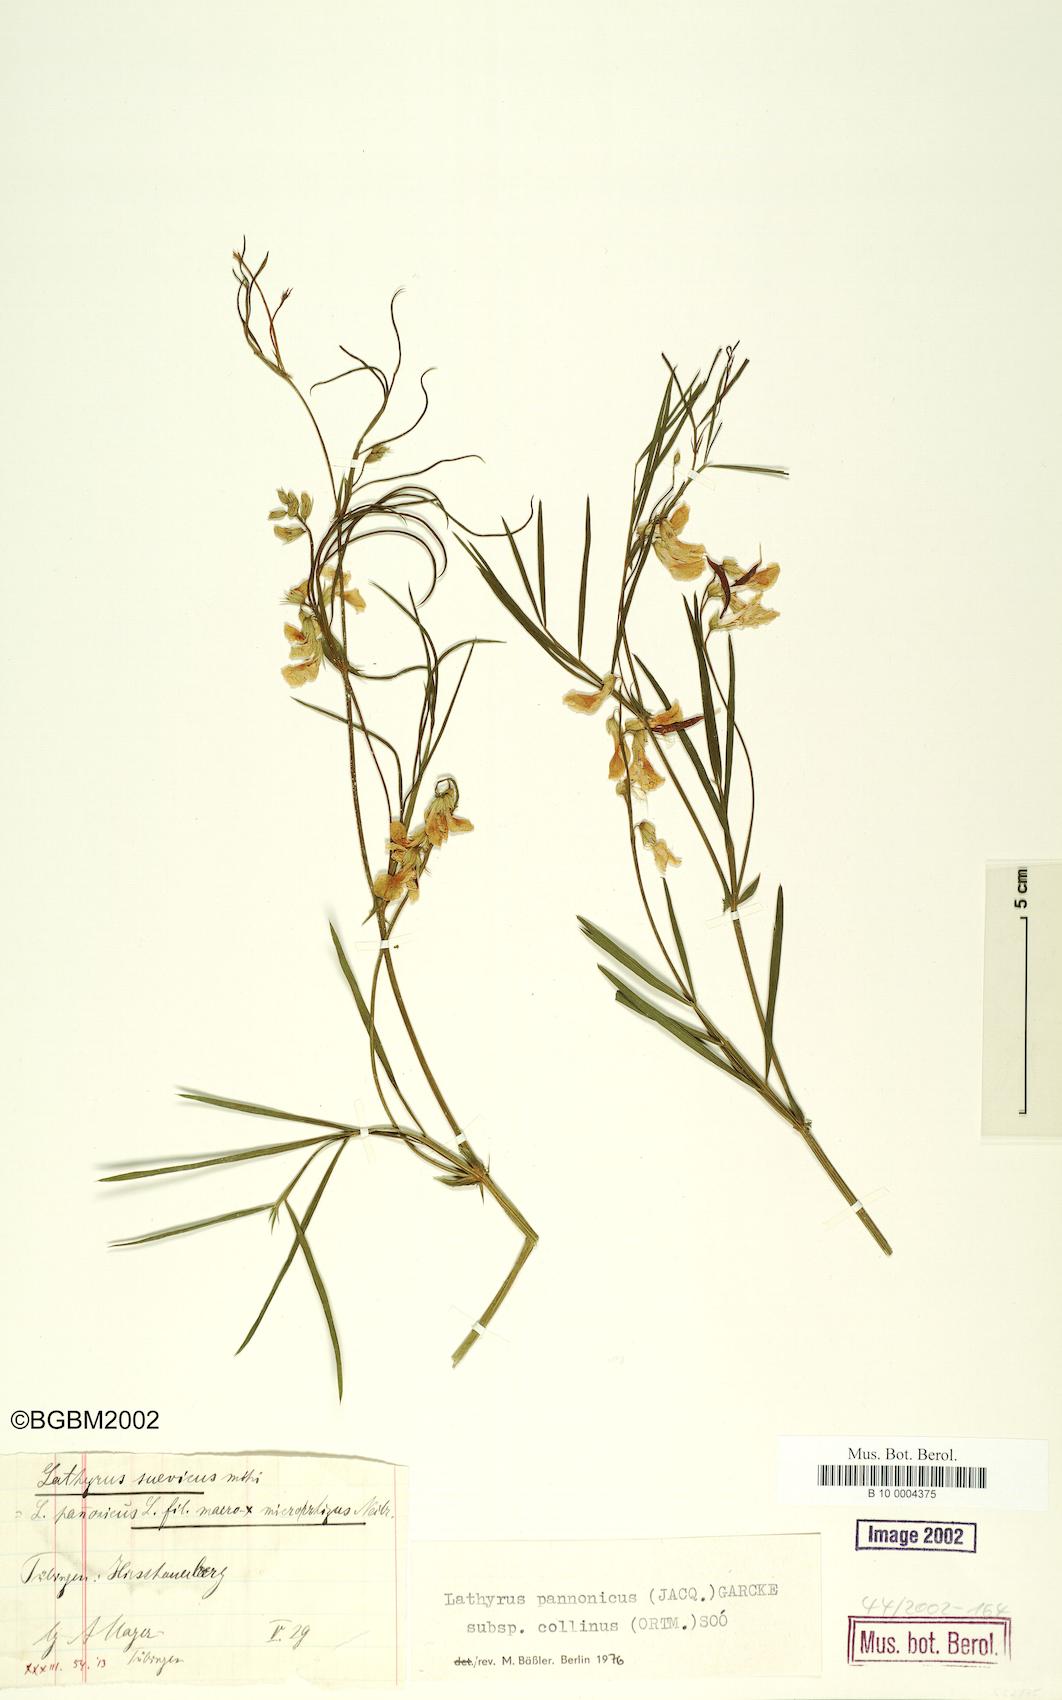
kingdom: Plantae
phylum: Tracheophyta
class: Magnoliopsida
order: Fabales
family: Fabaceae
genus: Lathyrus
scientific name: Lathyrus pannonicus
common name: Pea
